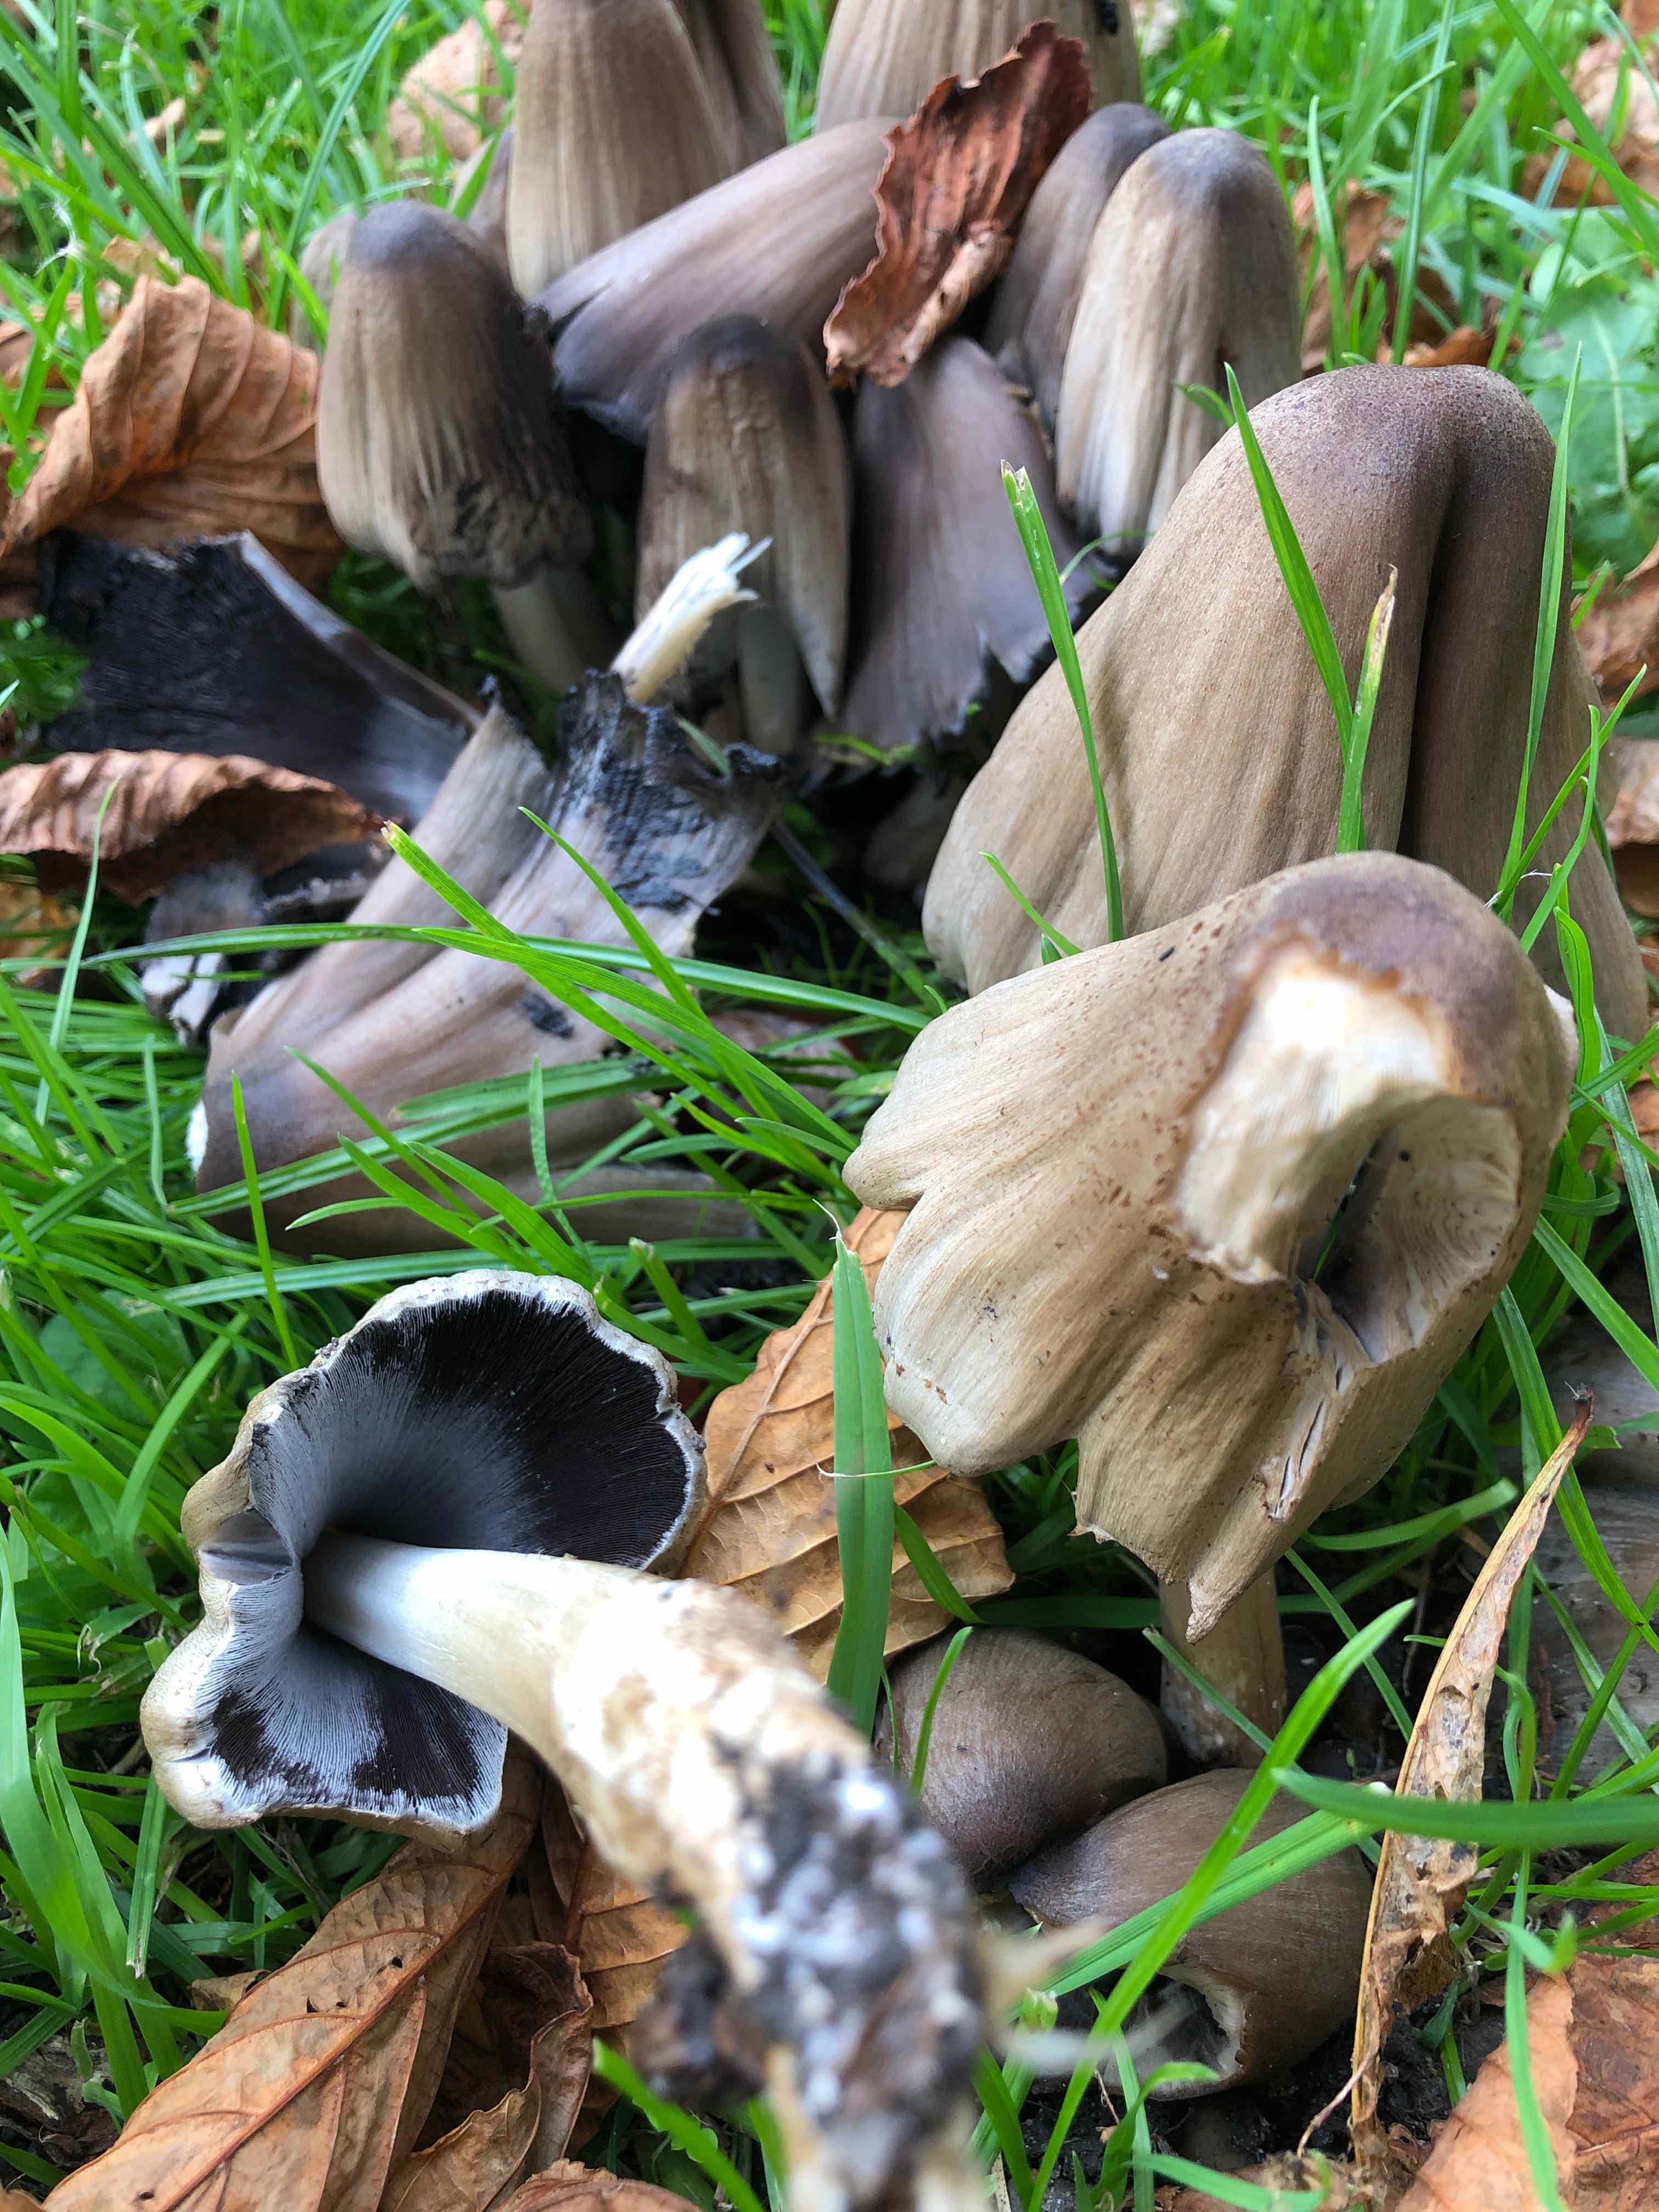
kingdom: Fungi
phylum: Basidiomycota
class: Agaricomycetes
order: Agaricales
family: Psathyrellaceae
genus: Coprinopsis
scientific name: Coprinopsis atramentaria
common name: almindelig blækhat
